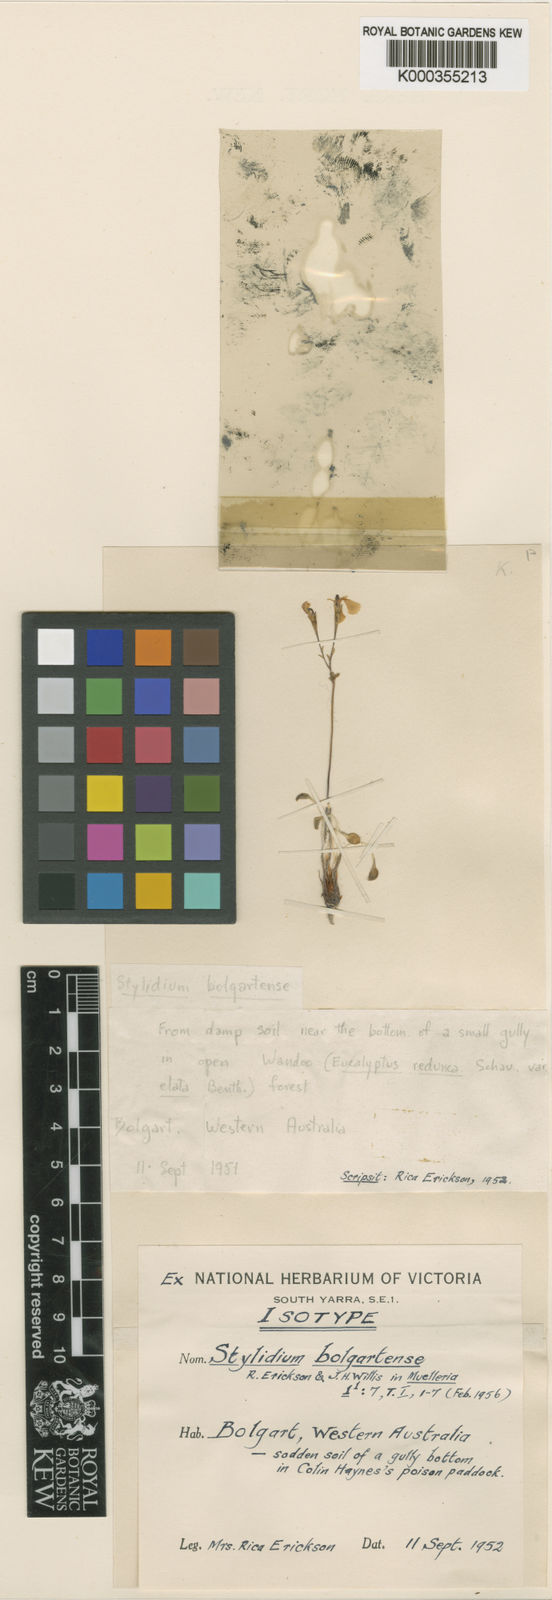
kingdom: Plantae
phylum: Tracheophyta
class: Magnoliopsida
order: Asterales
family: Stylidiaceae
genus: Stylidium
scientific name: Stylidium obtusatum
